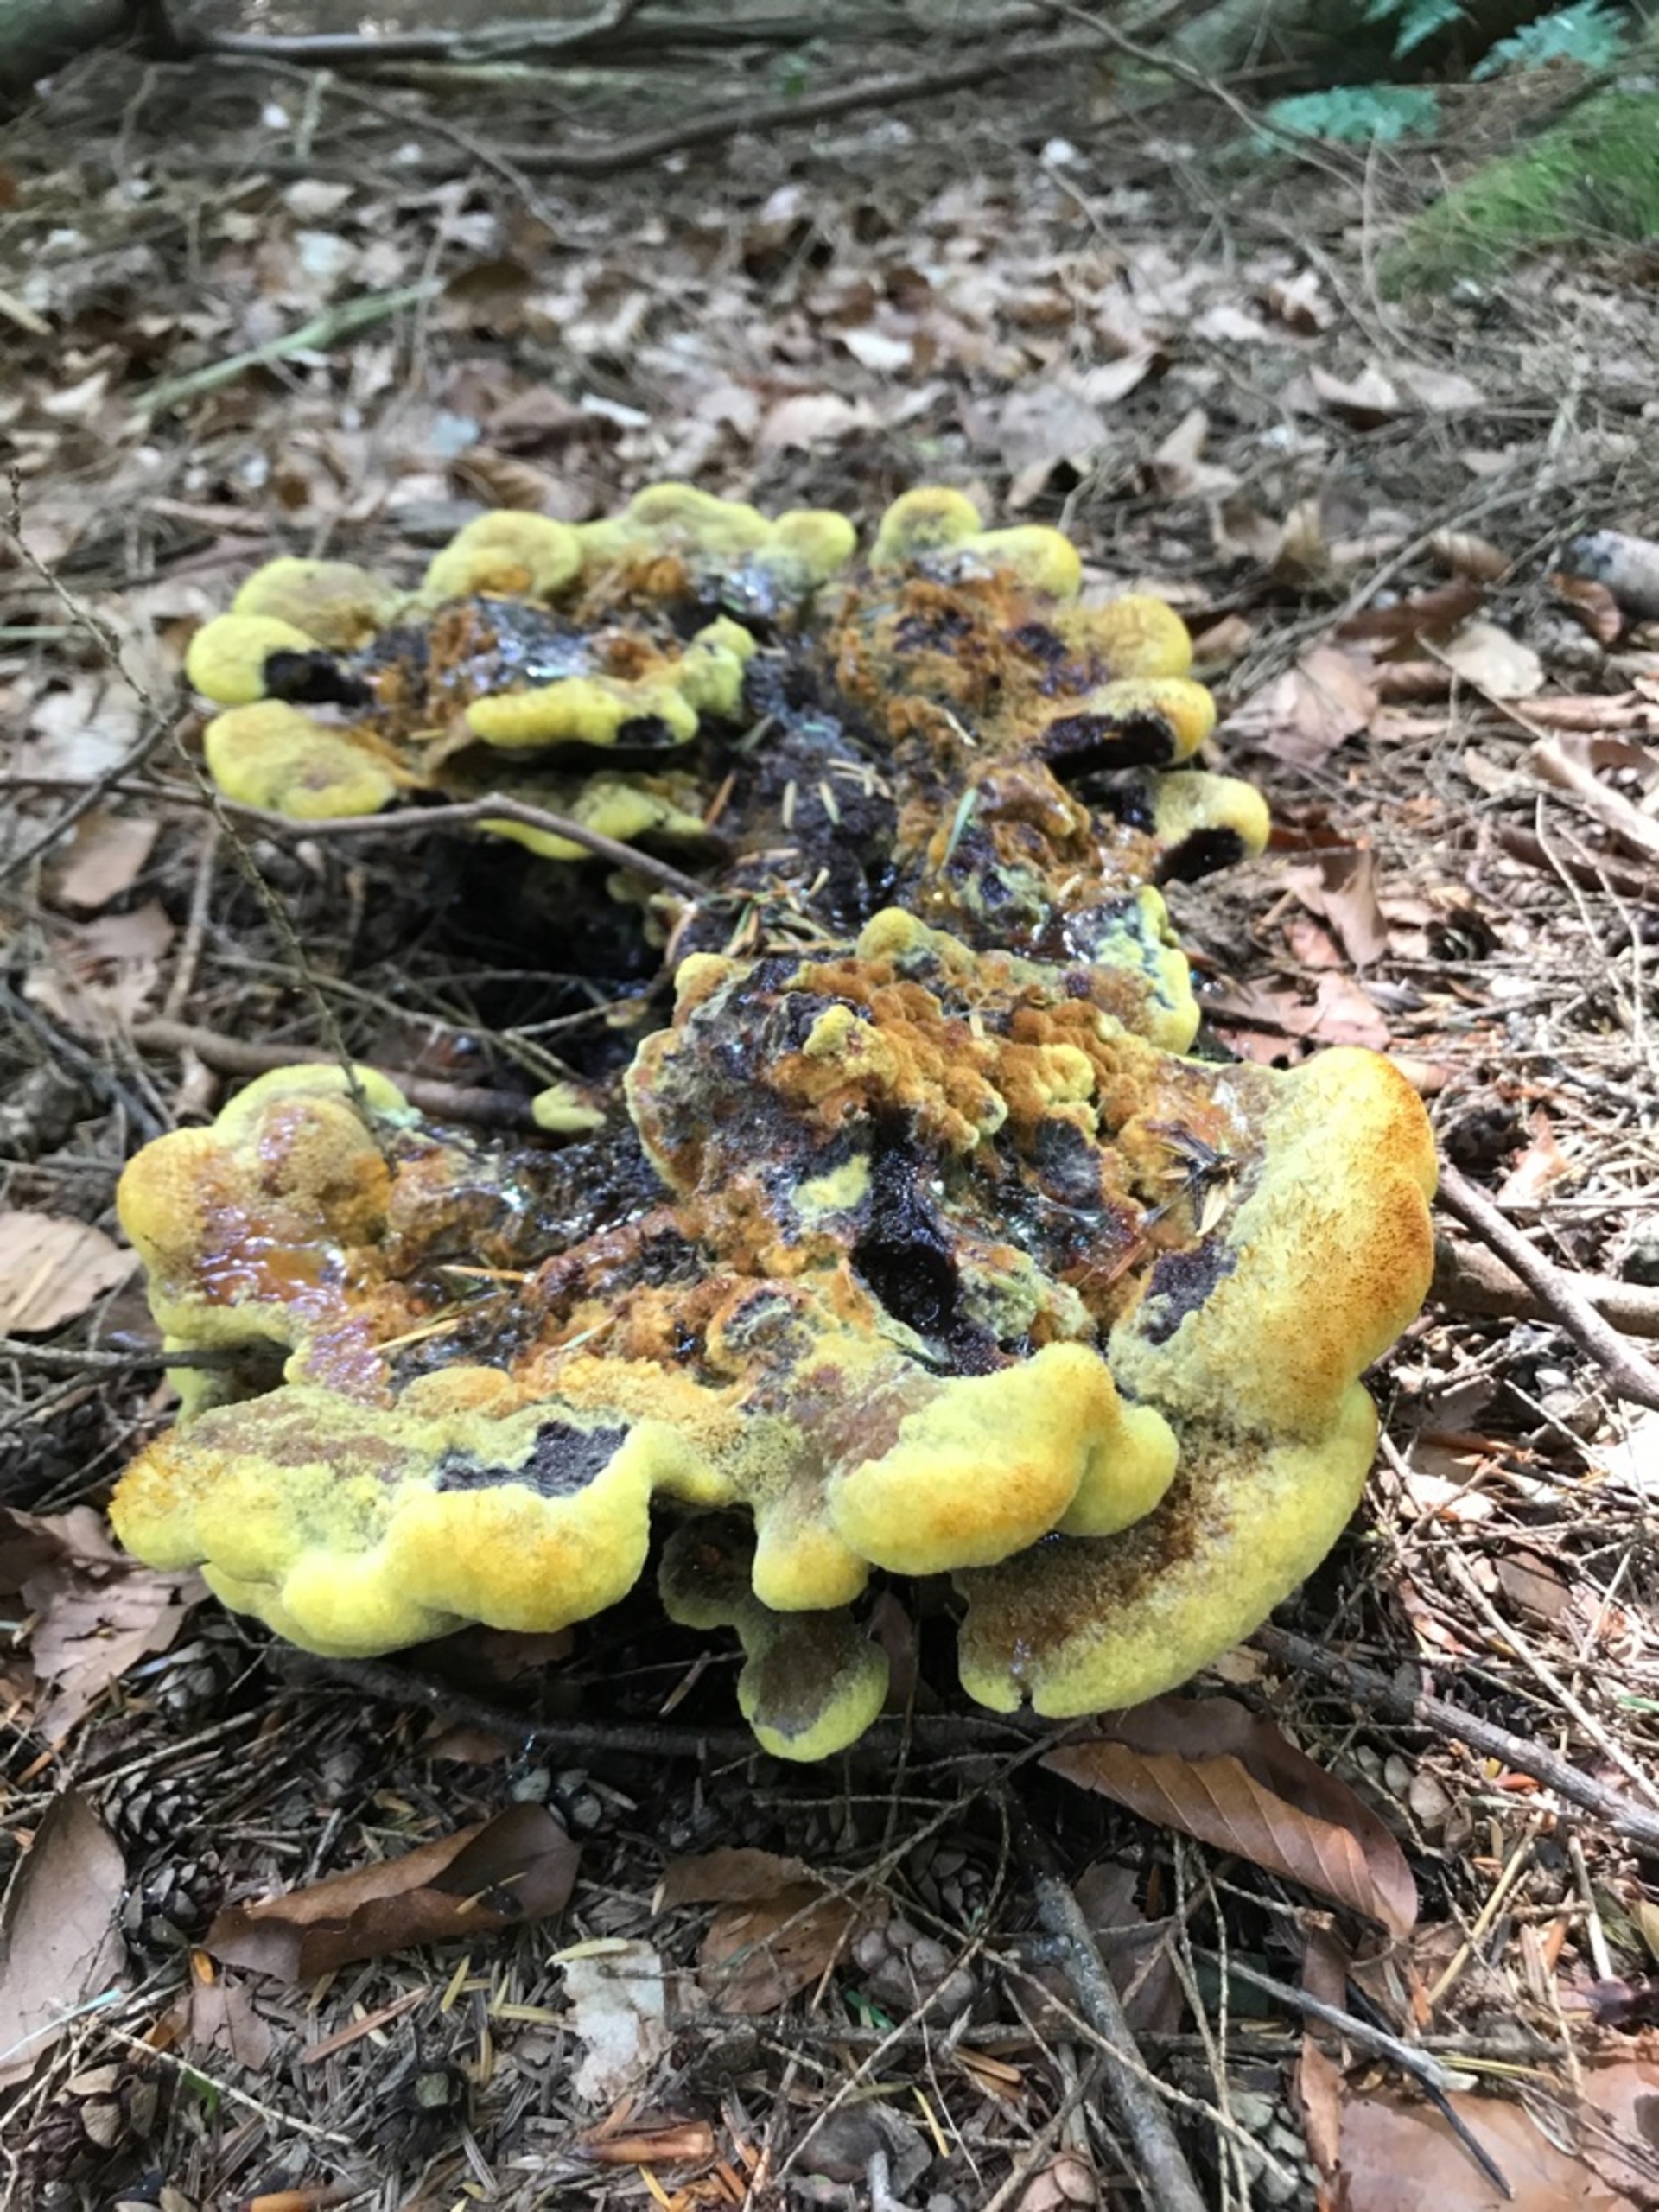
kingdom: Fungi
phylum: Basidiomycota
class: Agaricomycetes
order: Polyporales
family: Laetiporaceae
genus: Phaeolus
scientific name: Phaeolus schweinitzii
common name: Brunporesvamp
